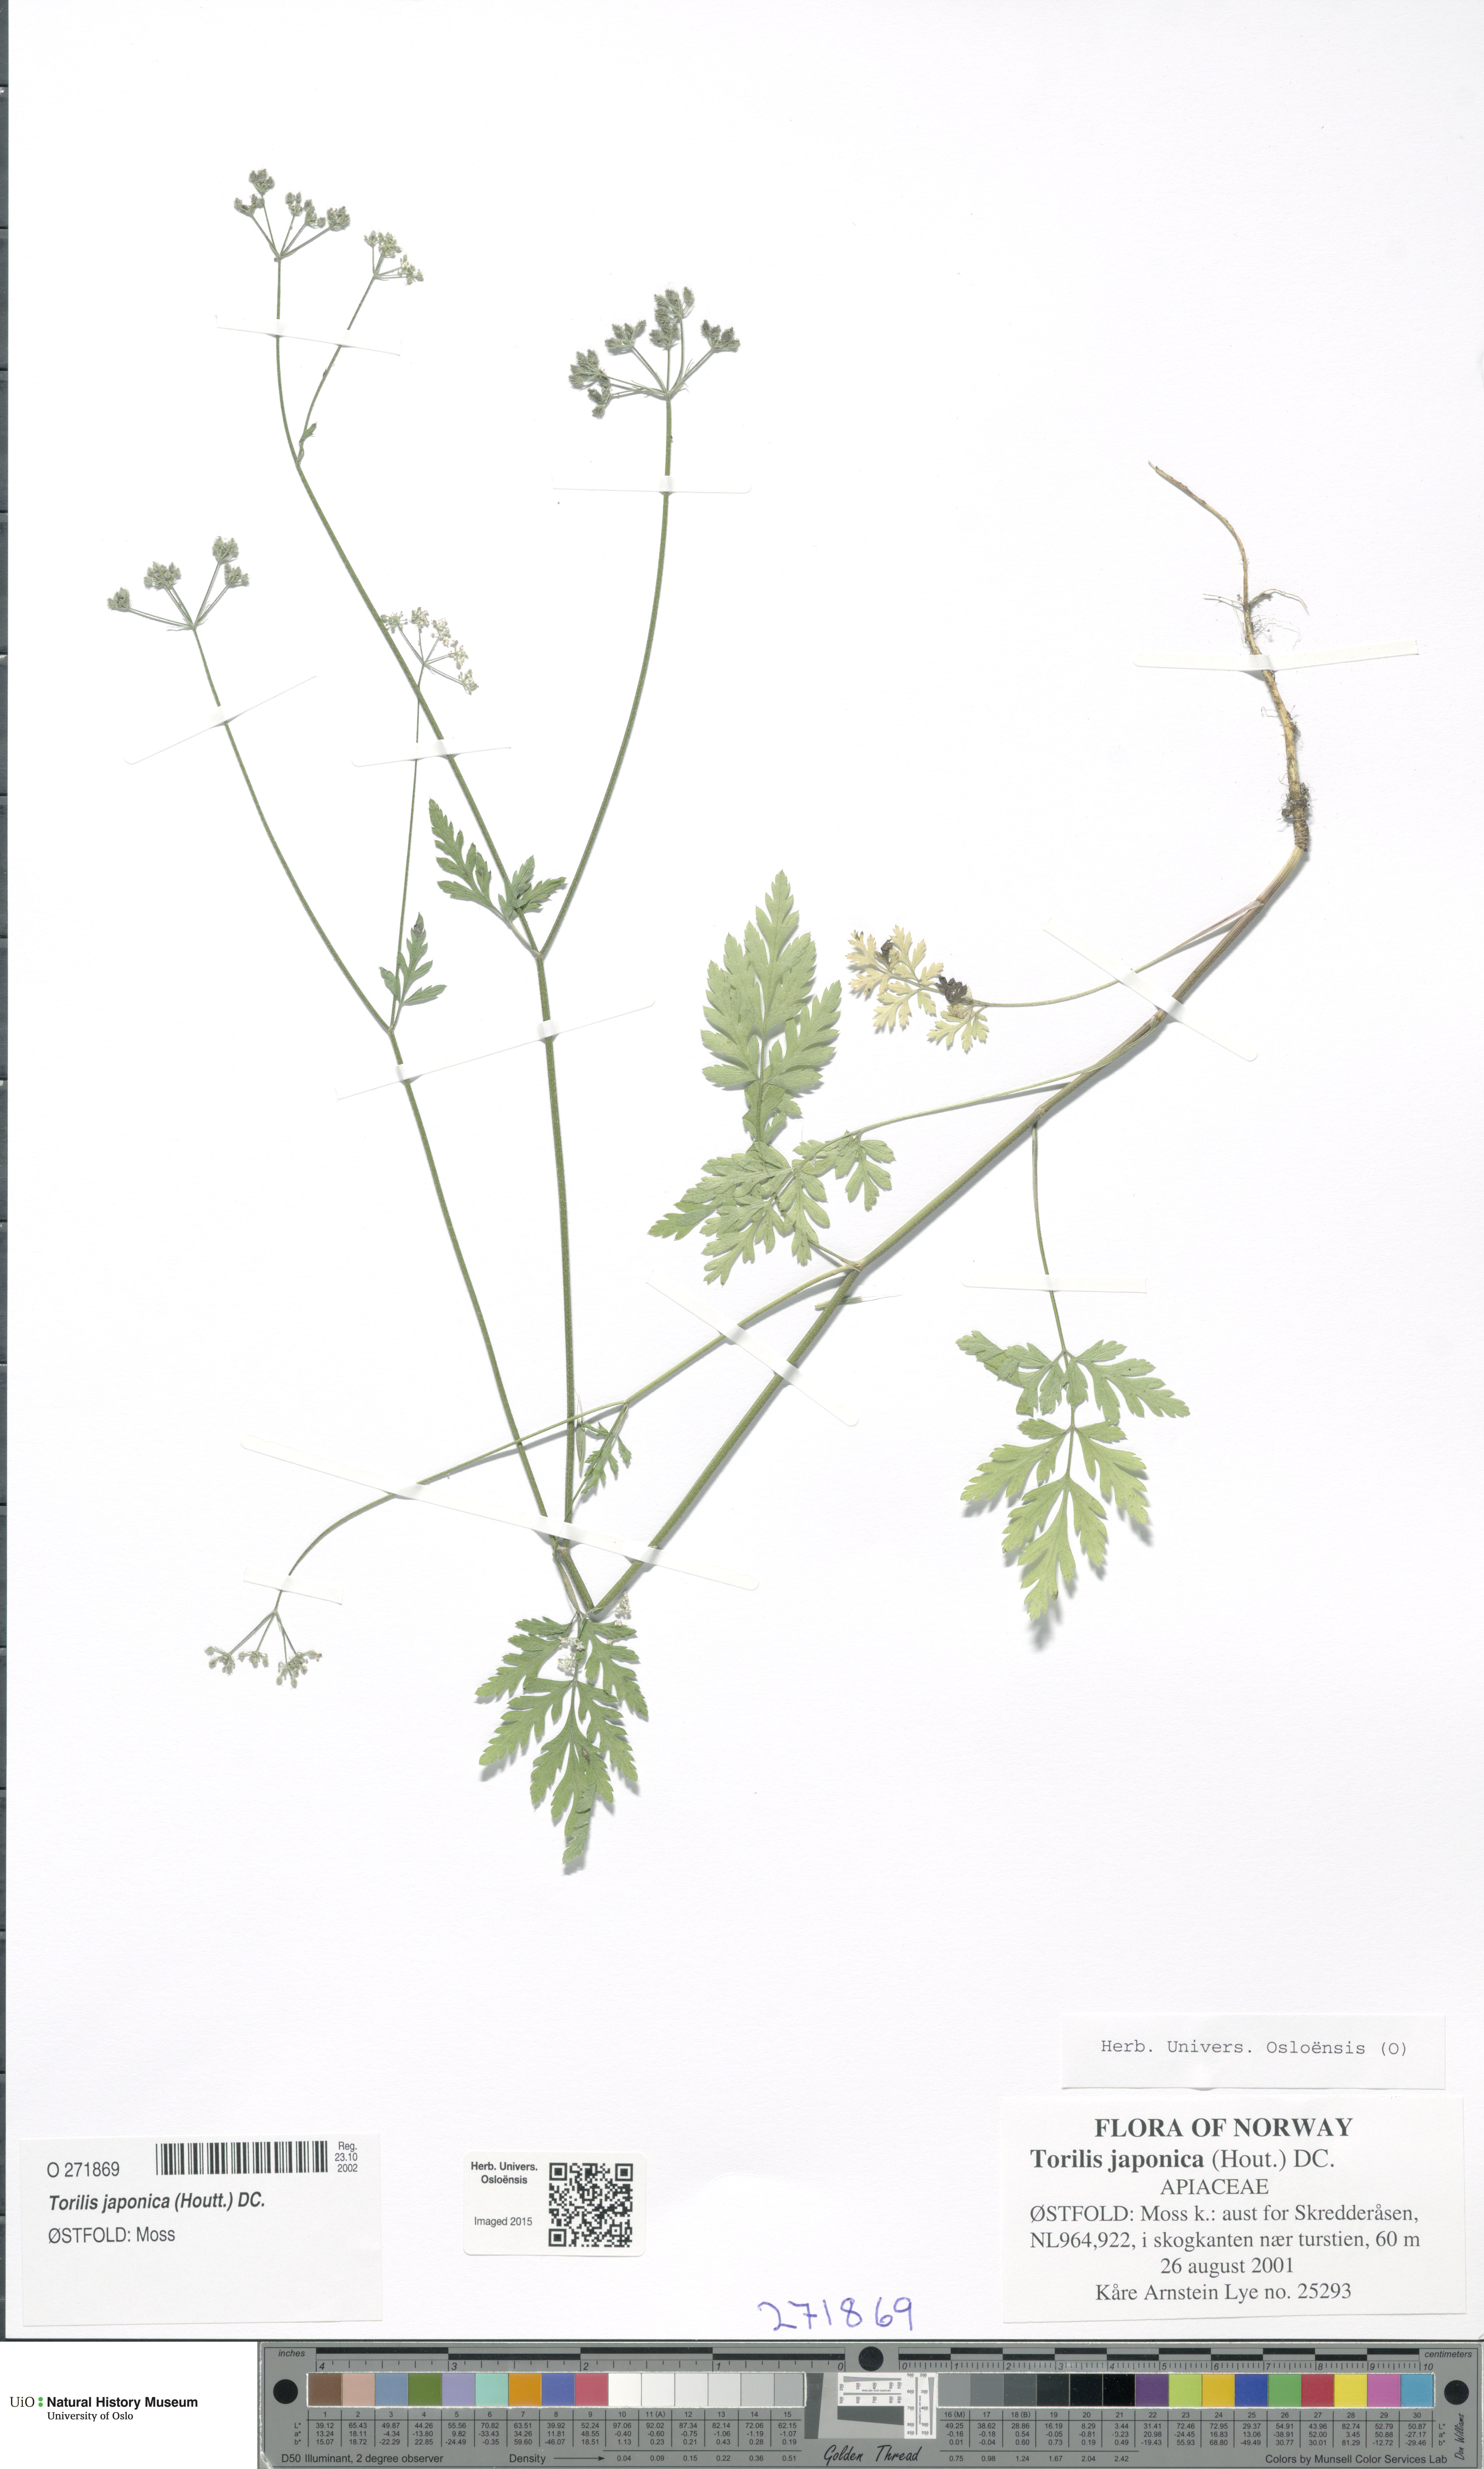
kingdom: Plantae
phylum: Tracheophyta
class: Magnoliopsida
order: Apiales
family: Apiaceae
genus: Torilis
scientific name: Torilis japonica
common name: Upright hedge-parsley
